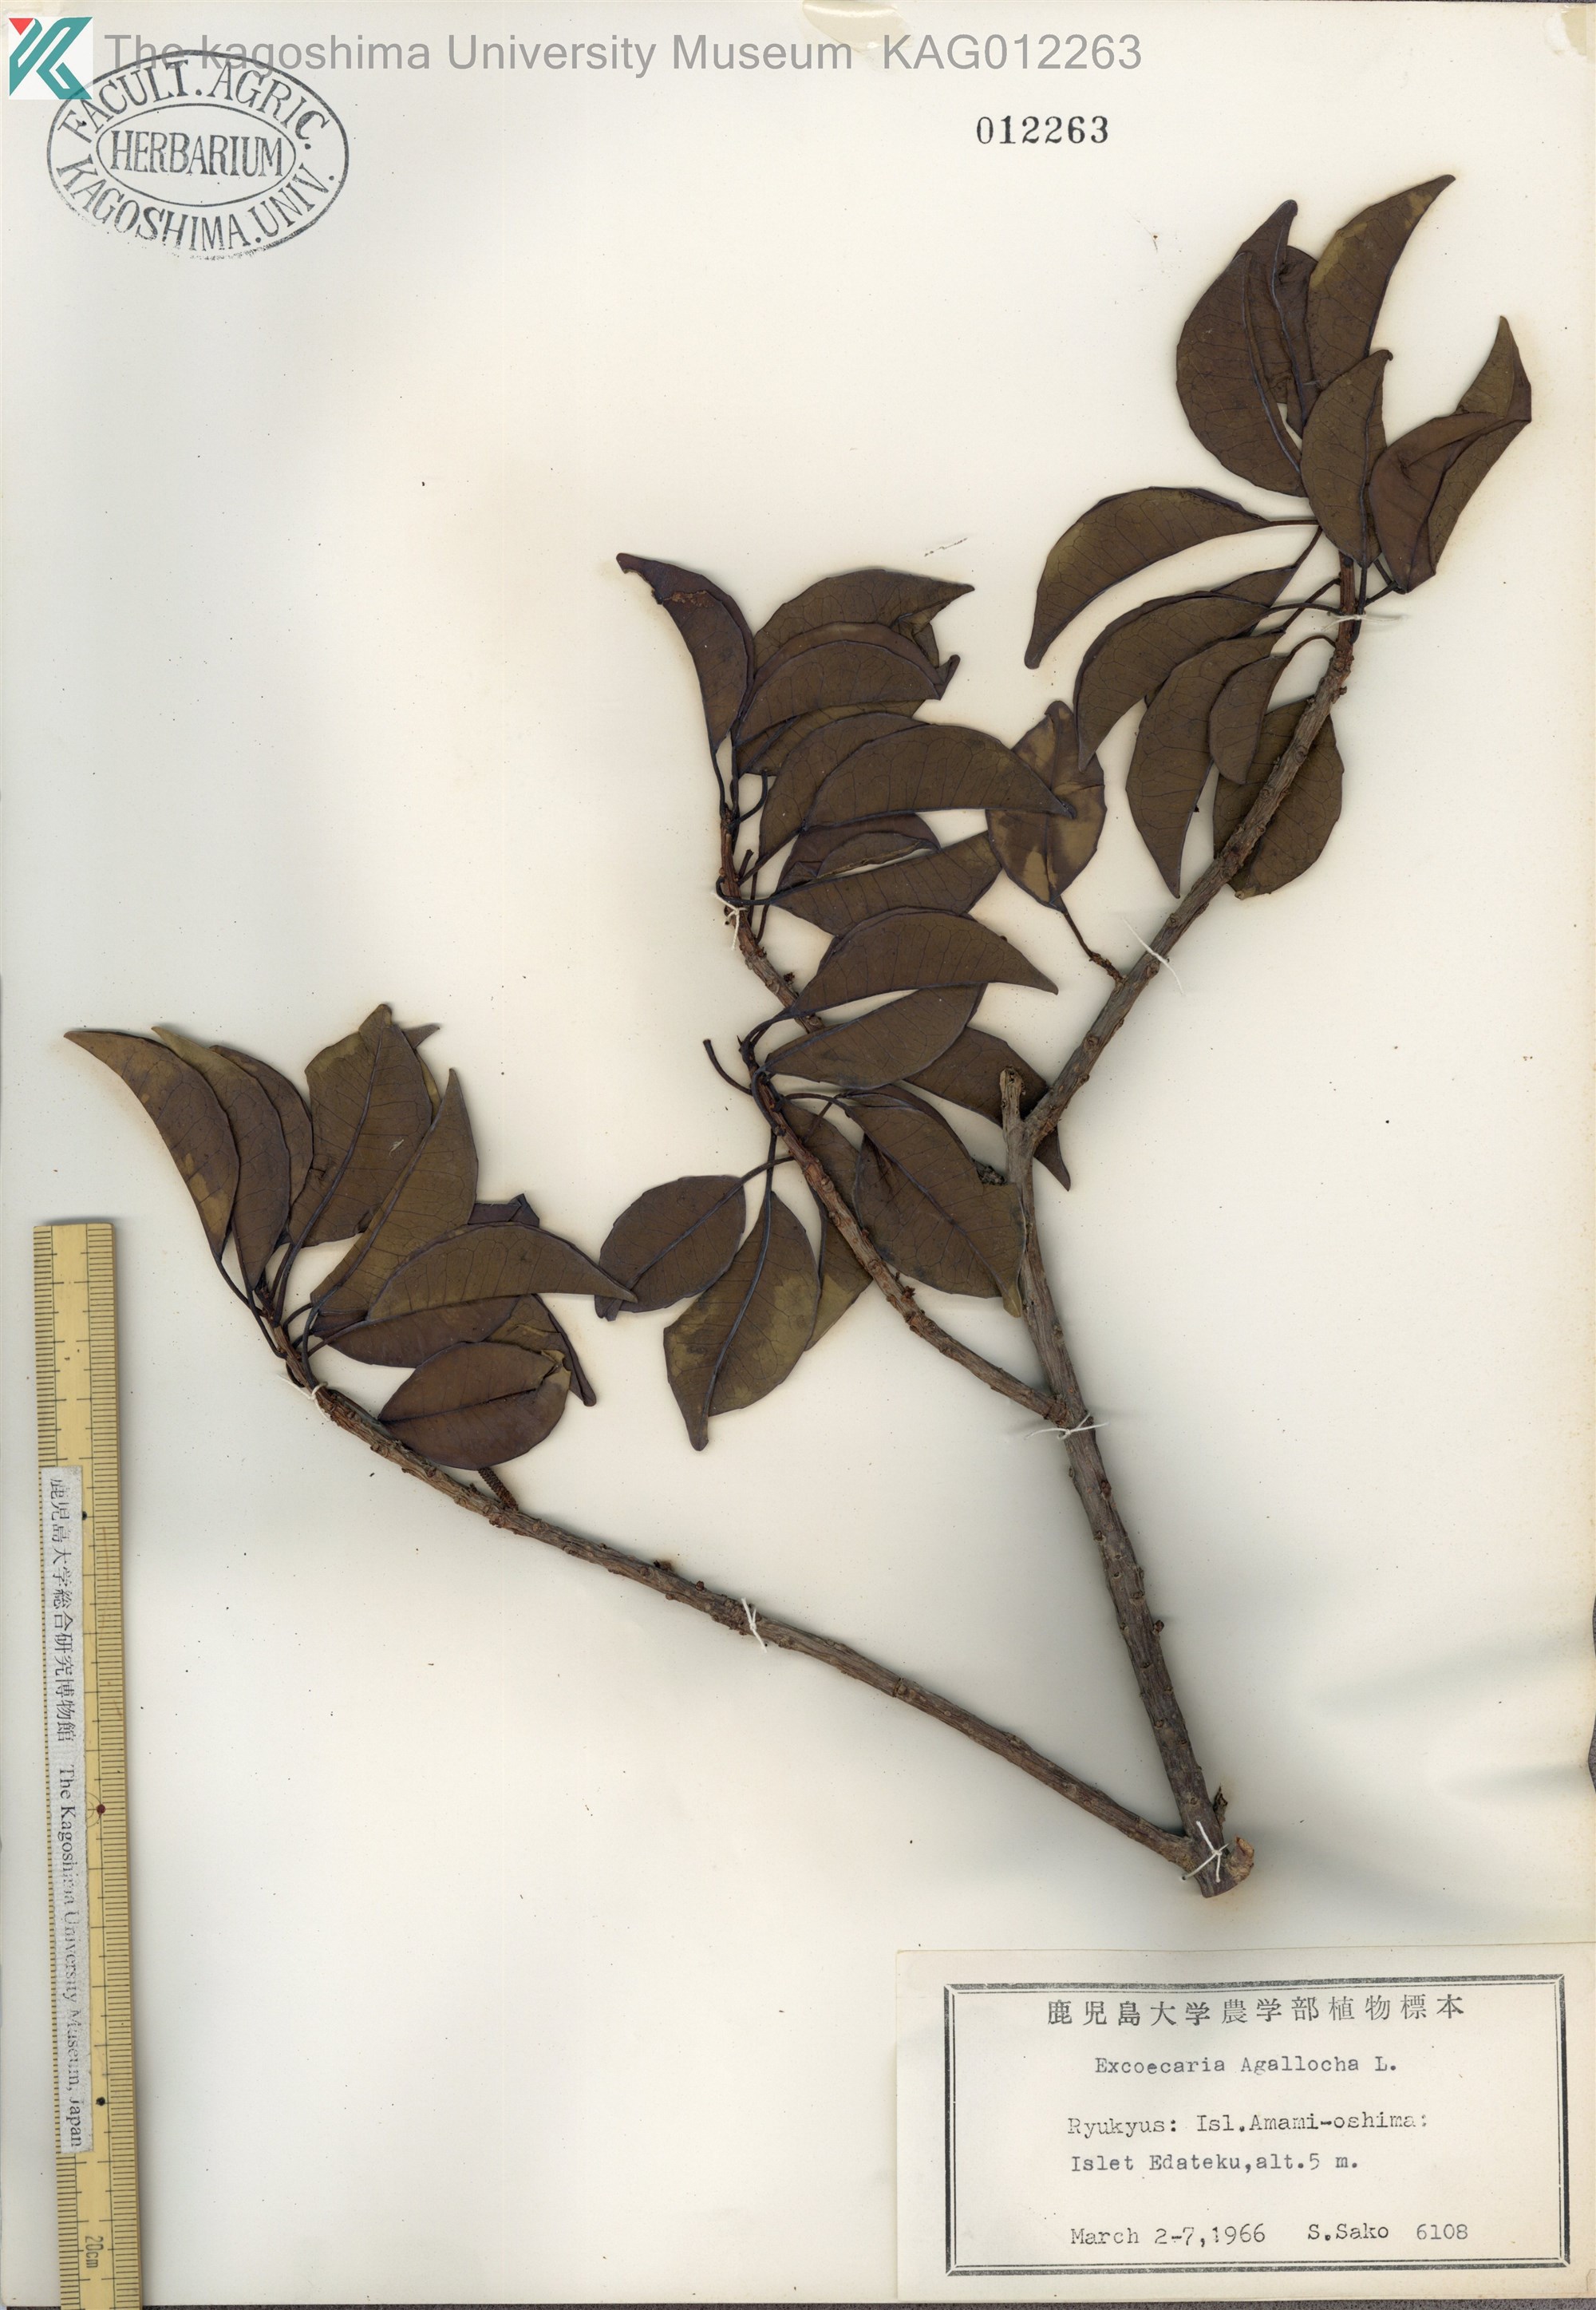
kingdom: Plantae
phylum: Tracheophyta
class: Magnoliopsida
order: Malpighiales
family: Euphorbiaceae
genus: Excoecaria
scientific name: Excoecaria agallocha
